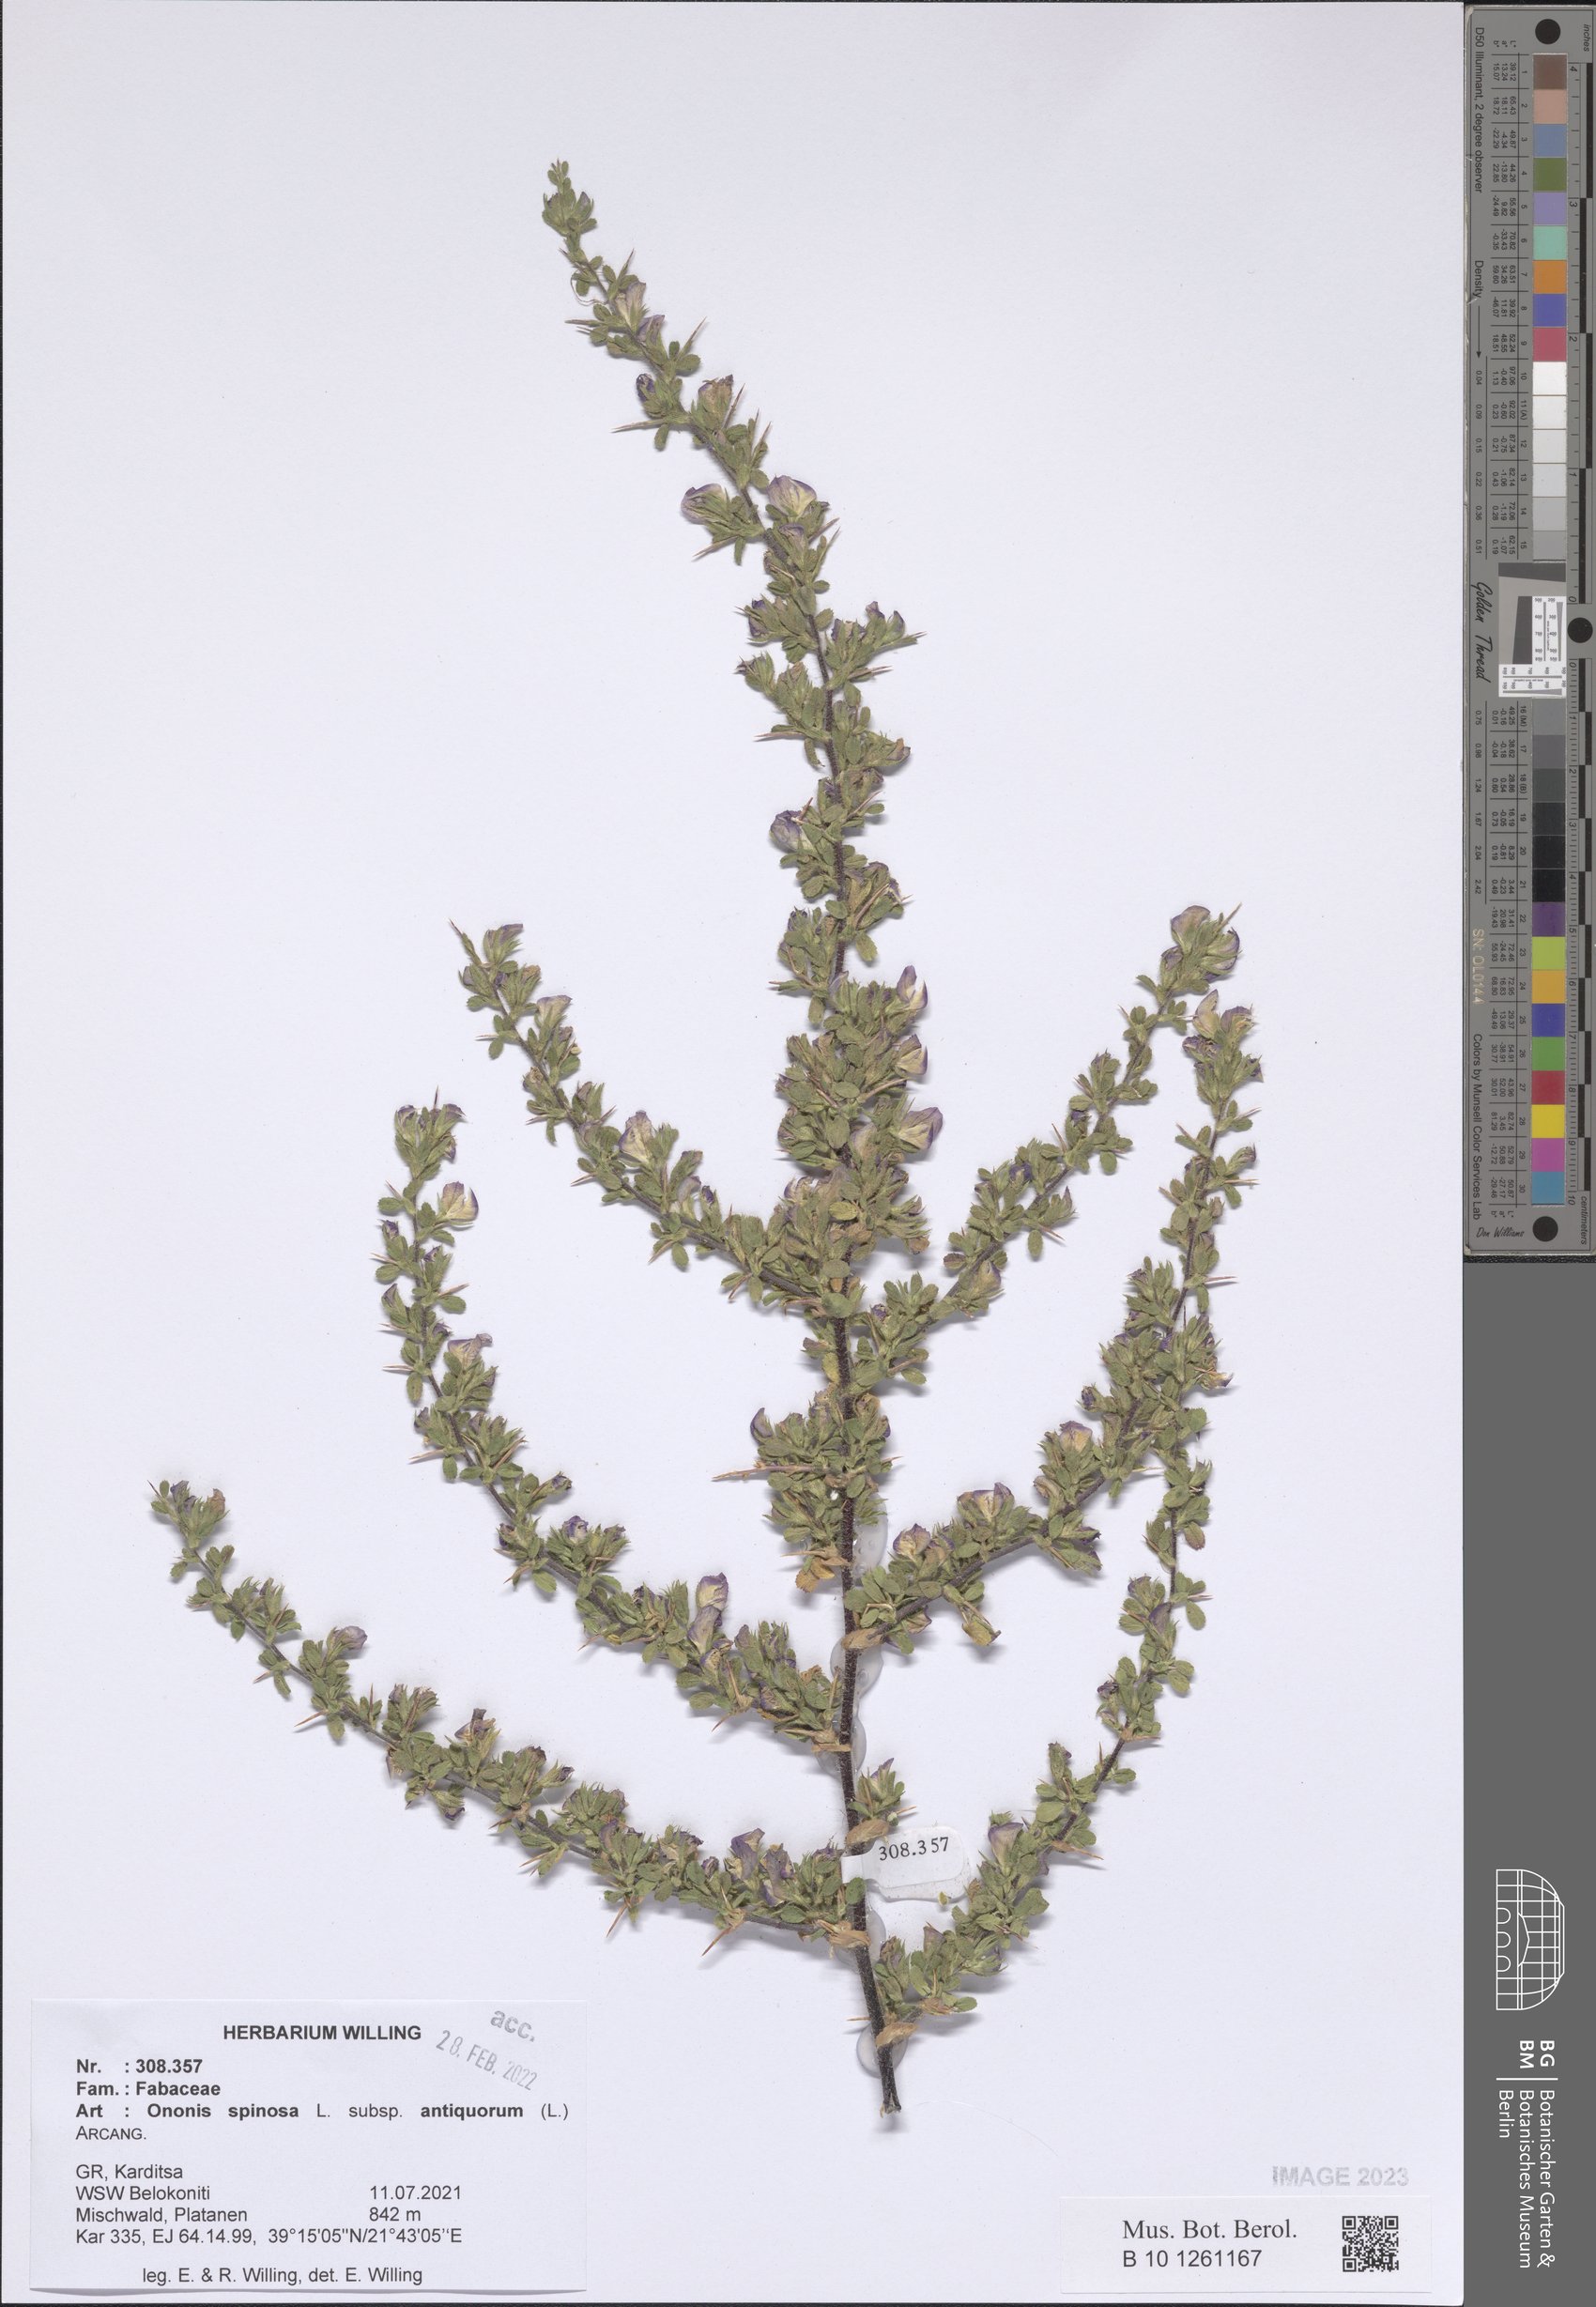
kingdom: Plantae
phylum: Tracheophyta
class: Magnoliopsida
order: Fabales
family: Fabaceae
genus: Ononis
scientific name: Ononis spinosa
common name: Spiny restharrow
